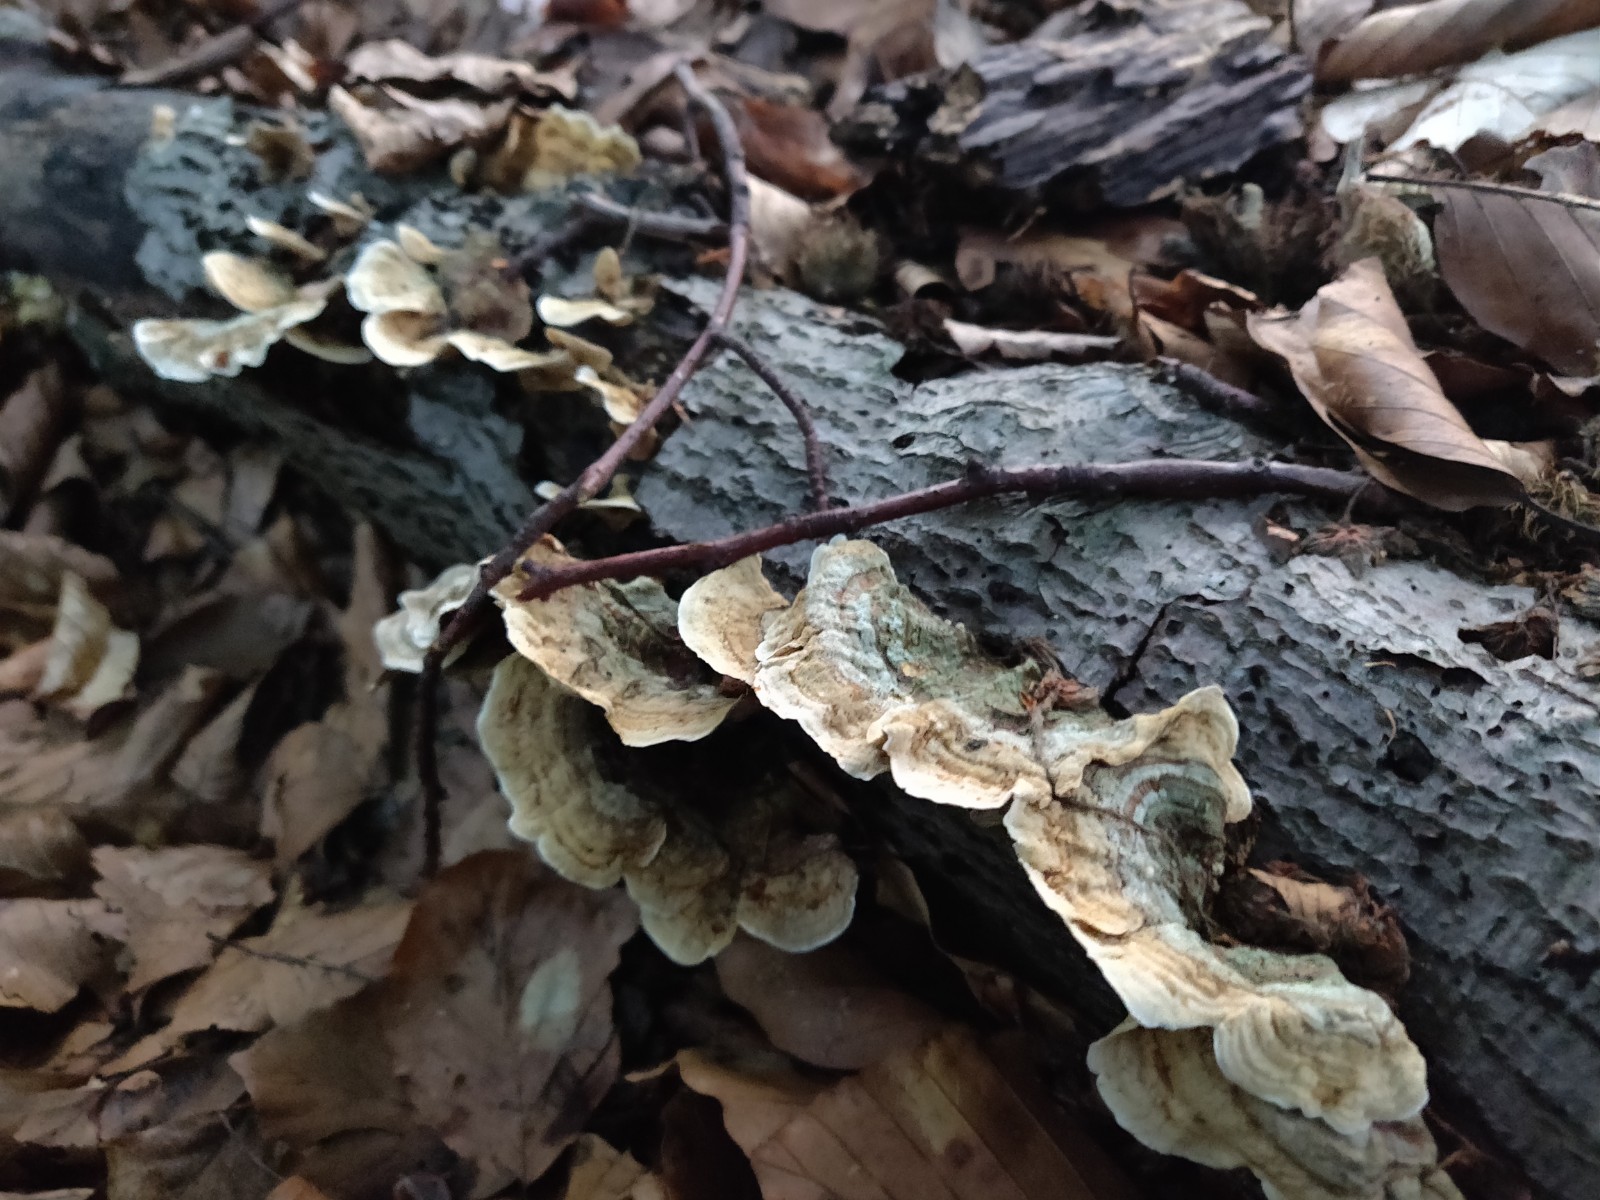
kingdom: Fungi
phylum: Basidiomycota
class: Agaricomycetes
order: Russulales
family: Stereaceae
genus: Stereum
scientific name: Stereum subtomentosum
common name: smuk lædersvamp
